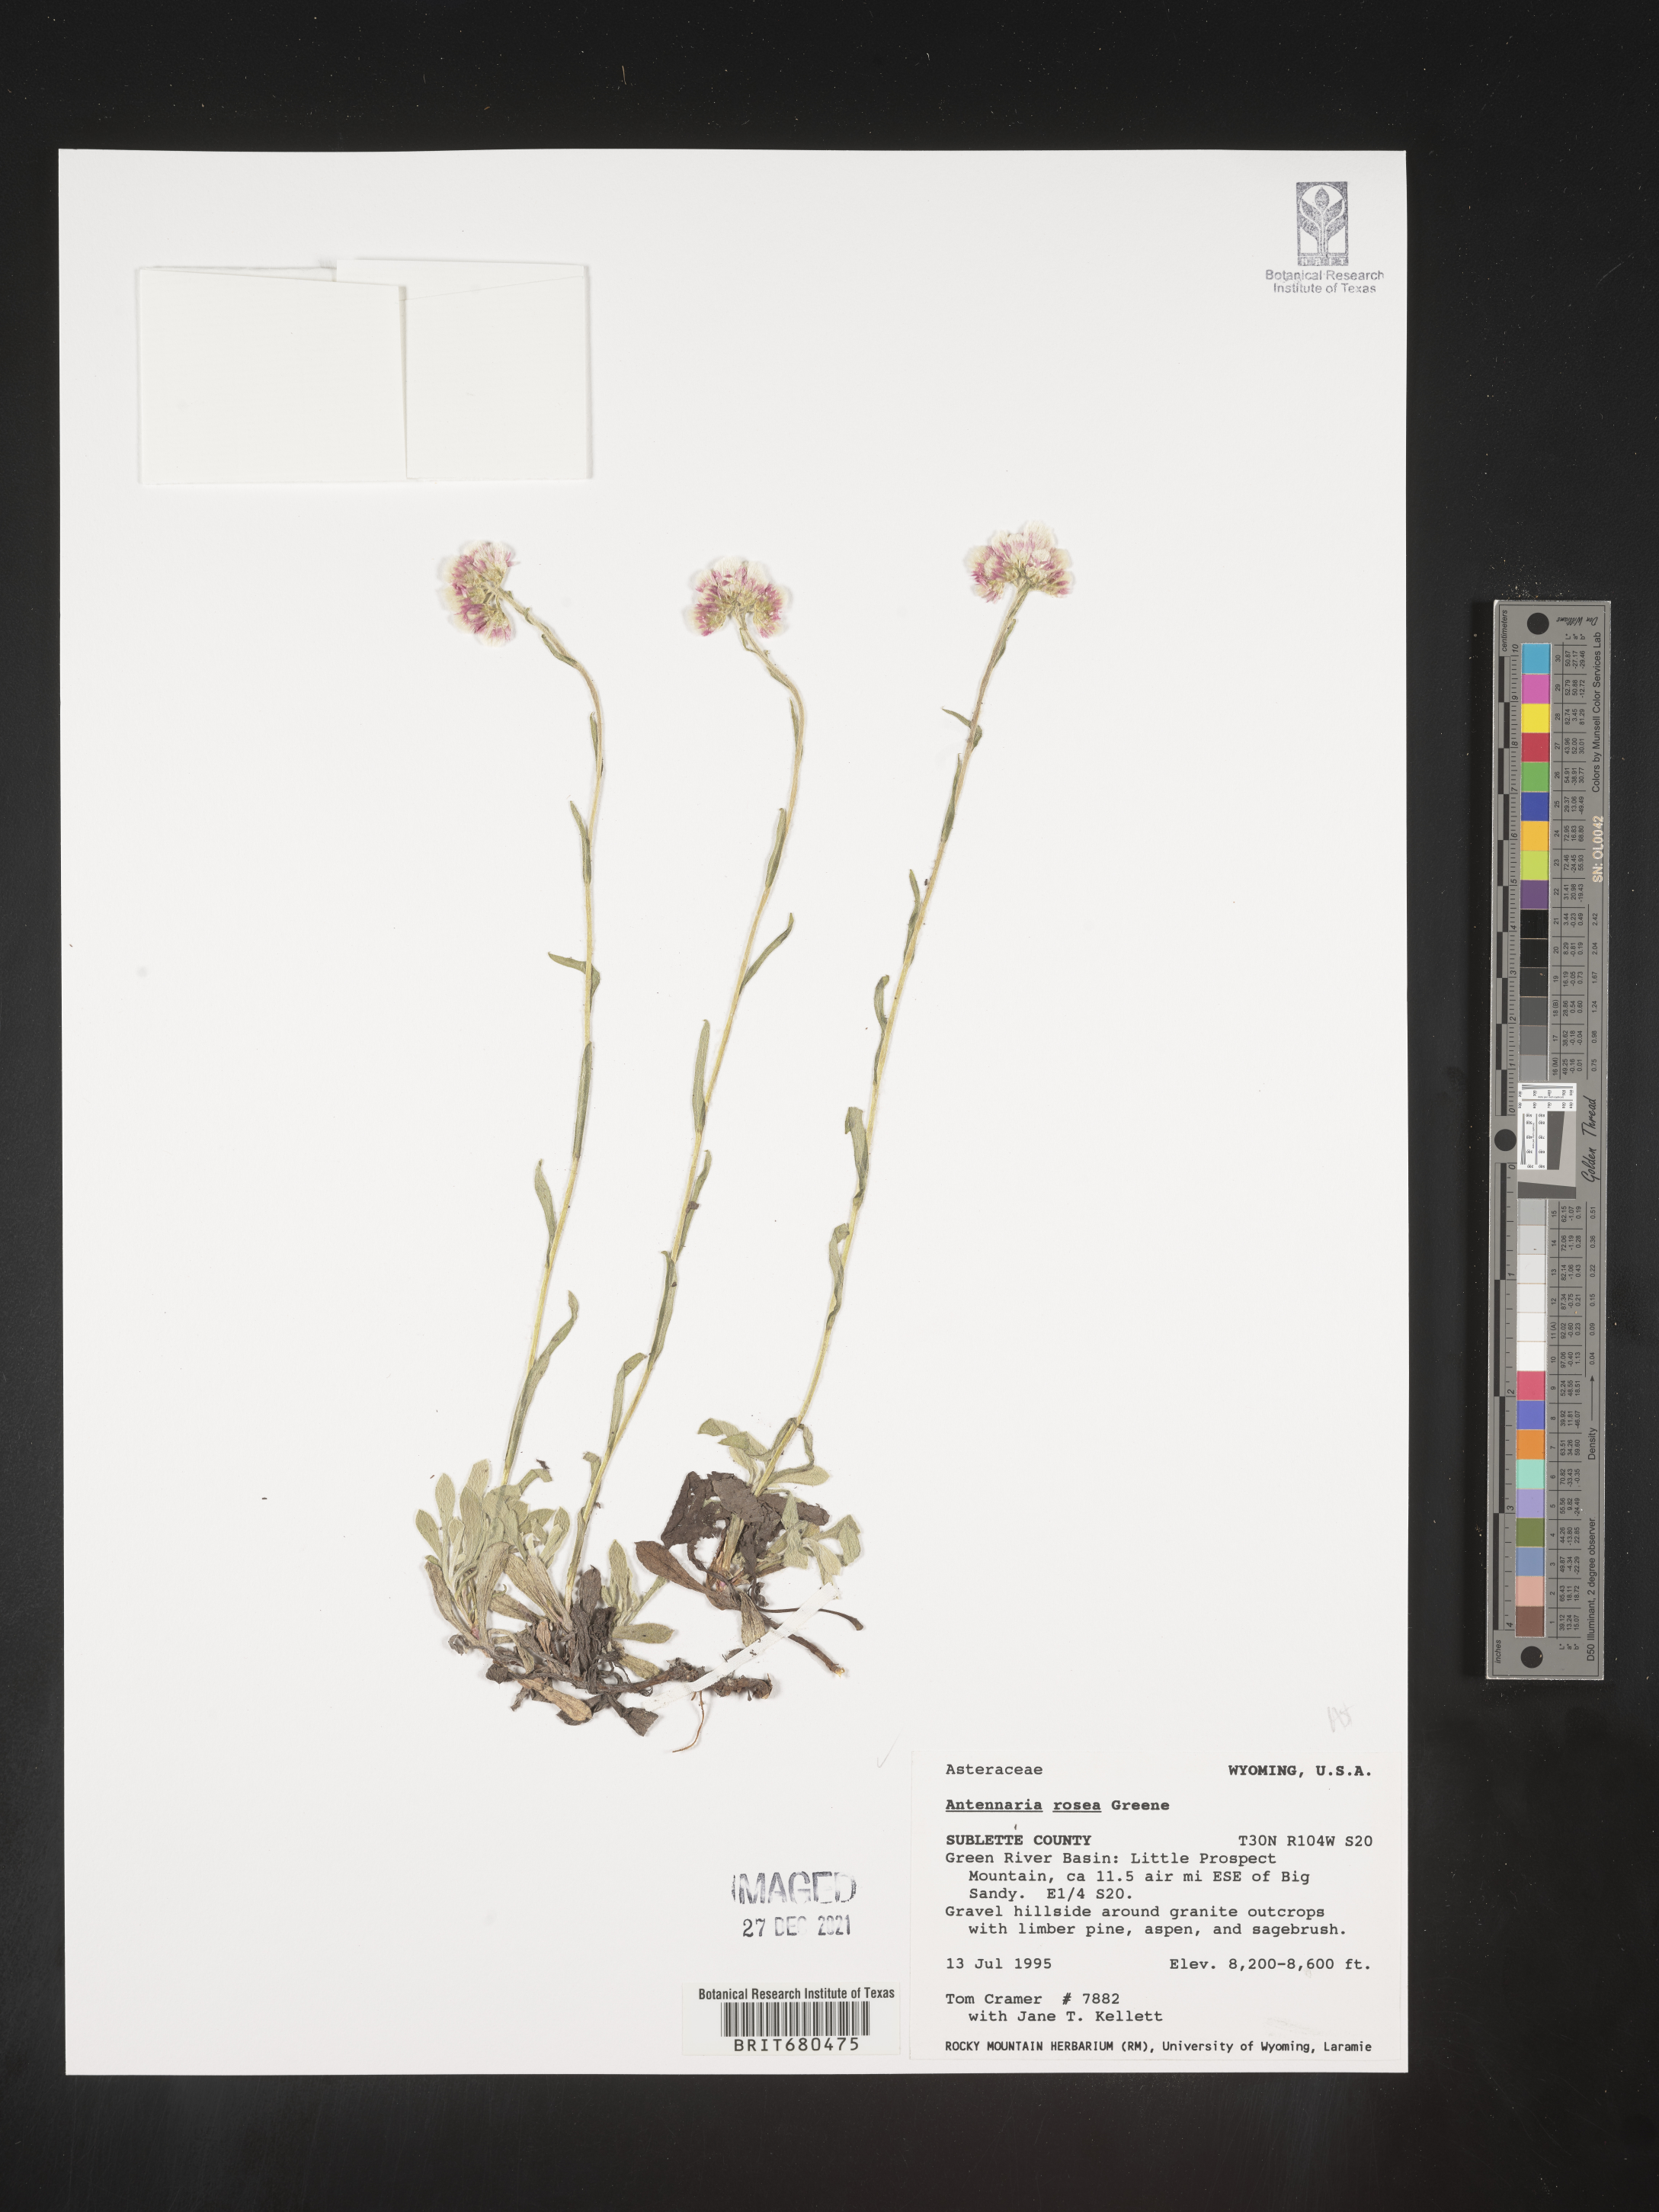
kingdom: Plantae
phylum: Tracheophyta
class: Magnoliopsida
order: Asterales
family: Asteraceae
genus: Antennaria
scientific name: Antennaria rosea
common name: Rosy pussytoes
